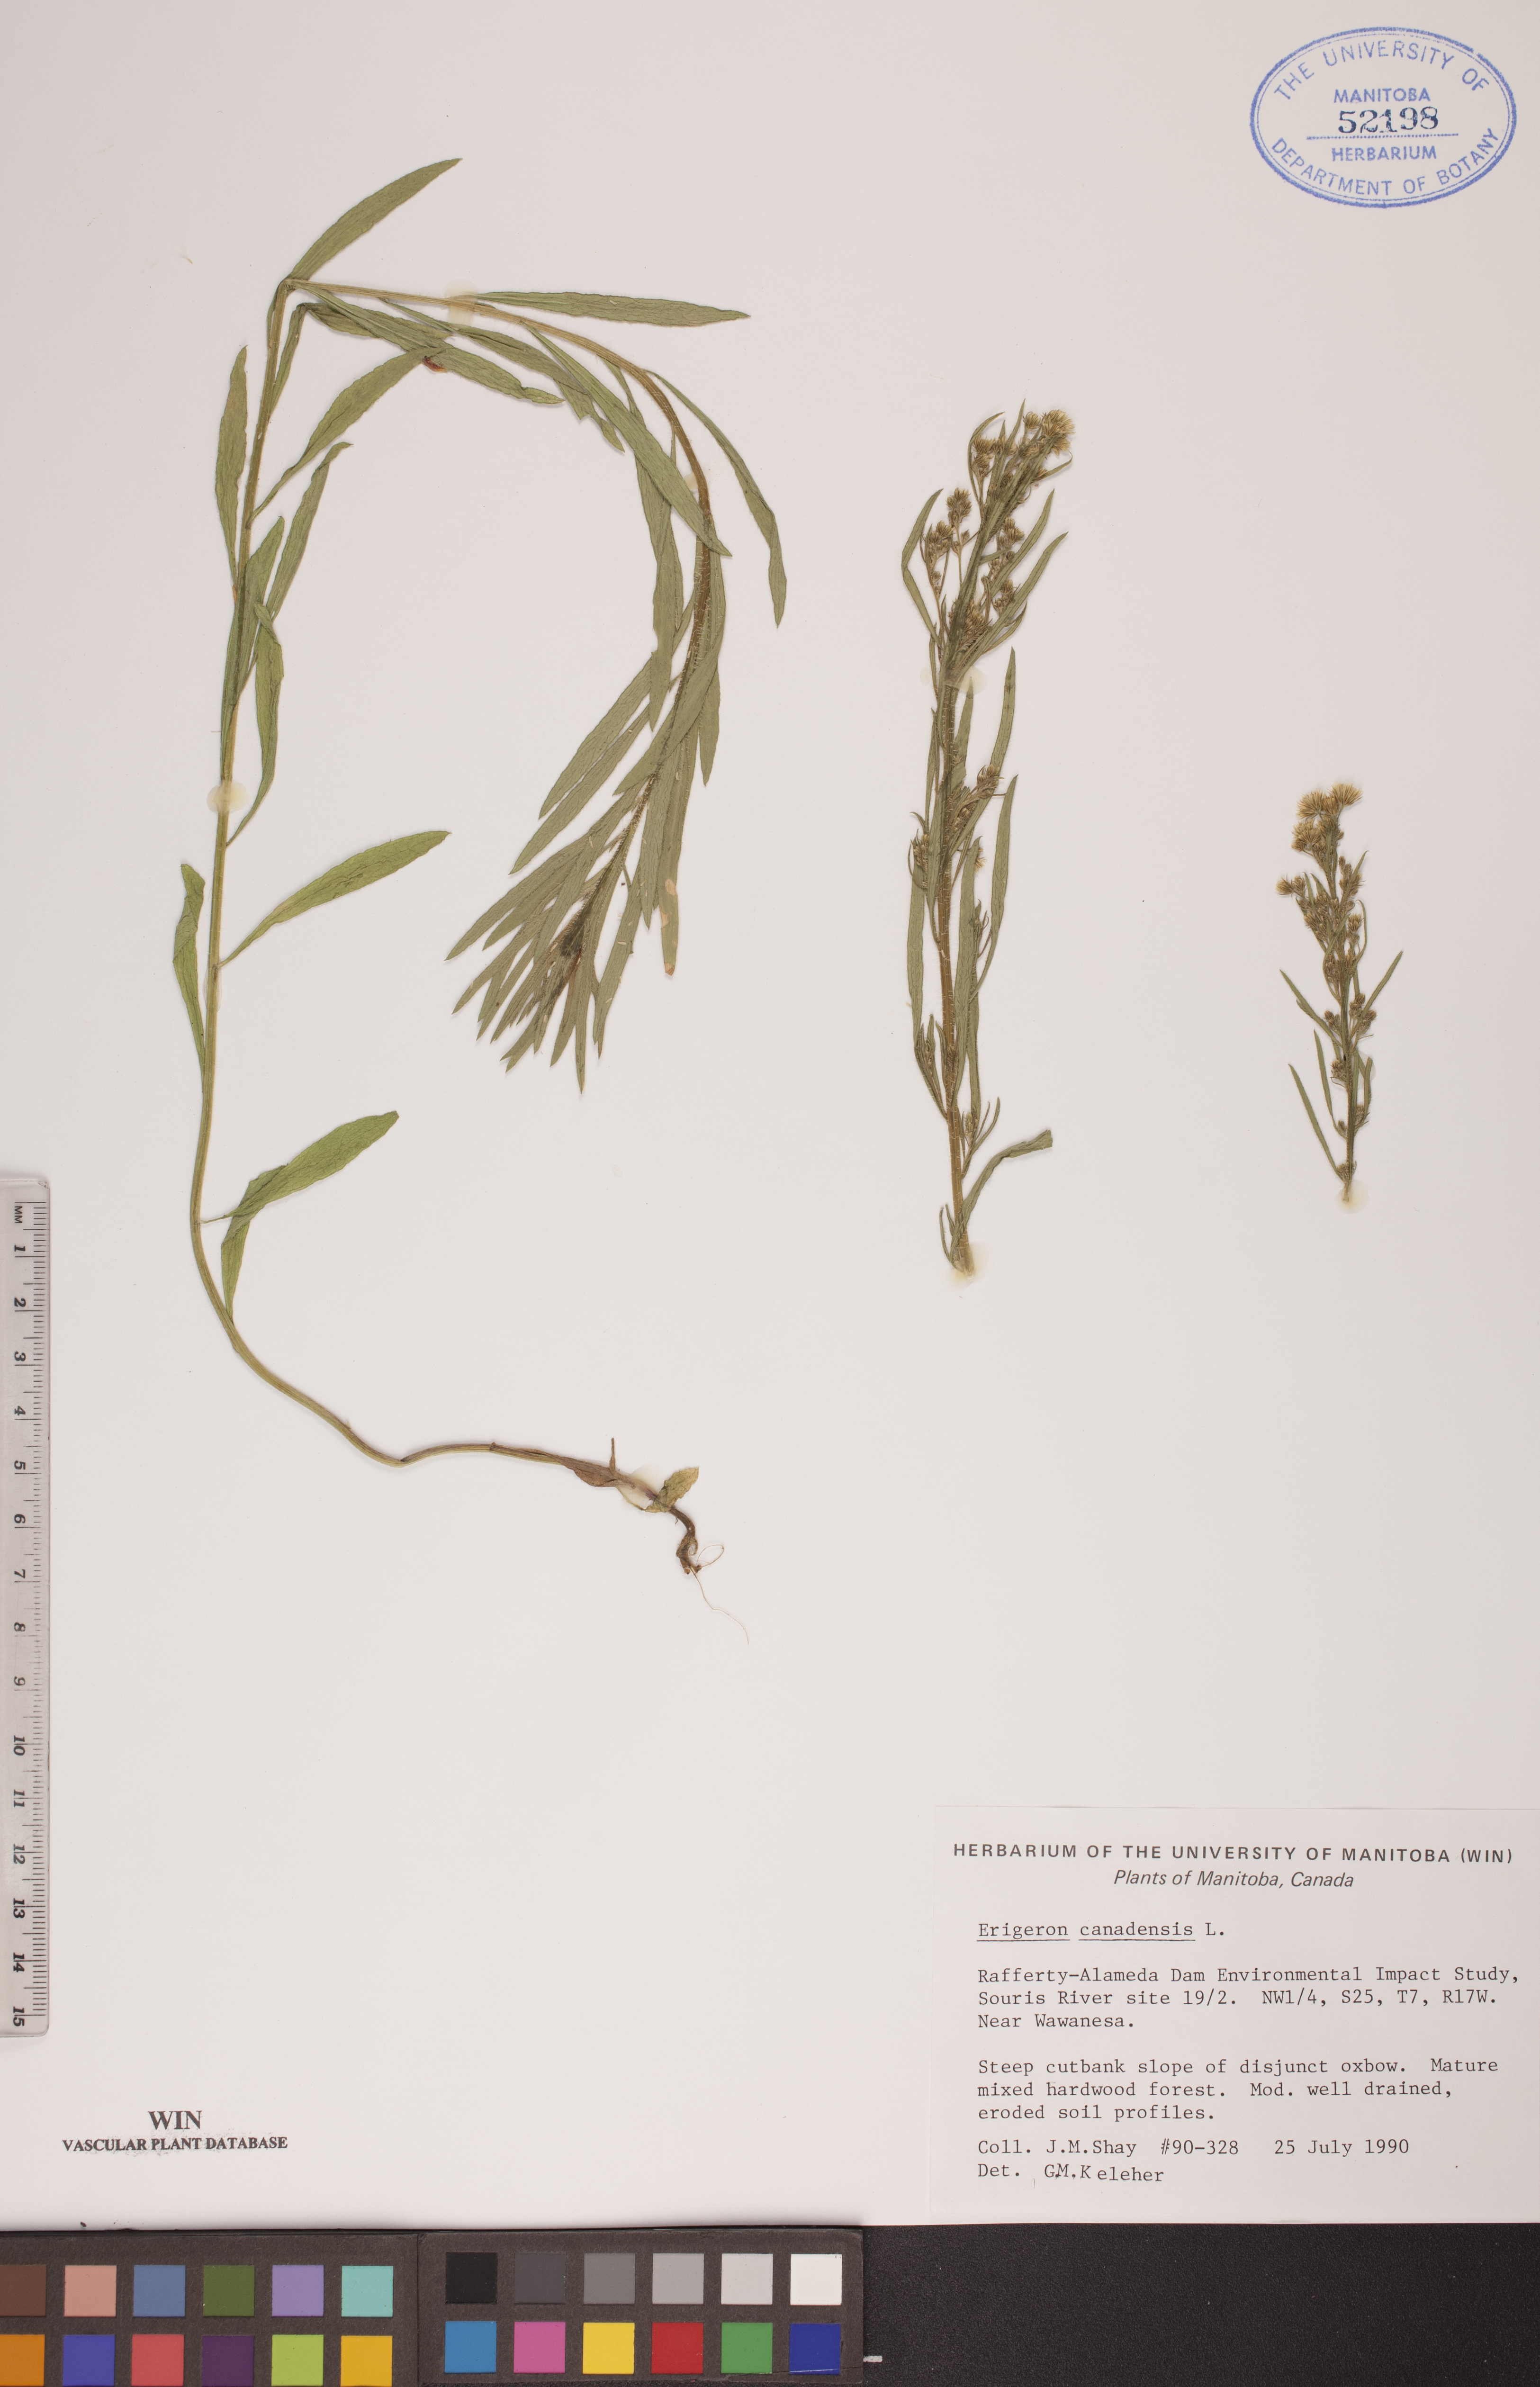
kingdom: Plantae
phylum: Tracheophyta
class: Magnoliopsida
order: Asterales
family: Asteraceae
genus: Erigeron
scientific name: Erigeron canadensis
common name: Canadian fleabane
